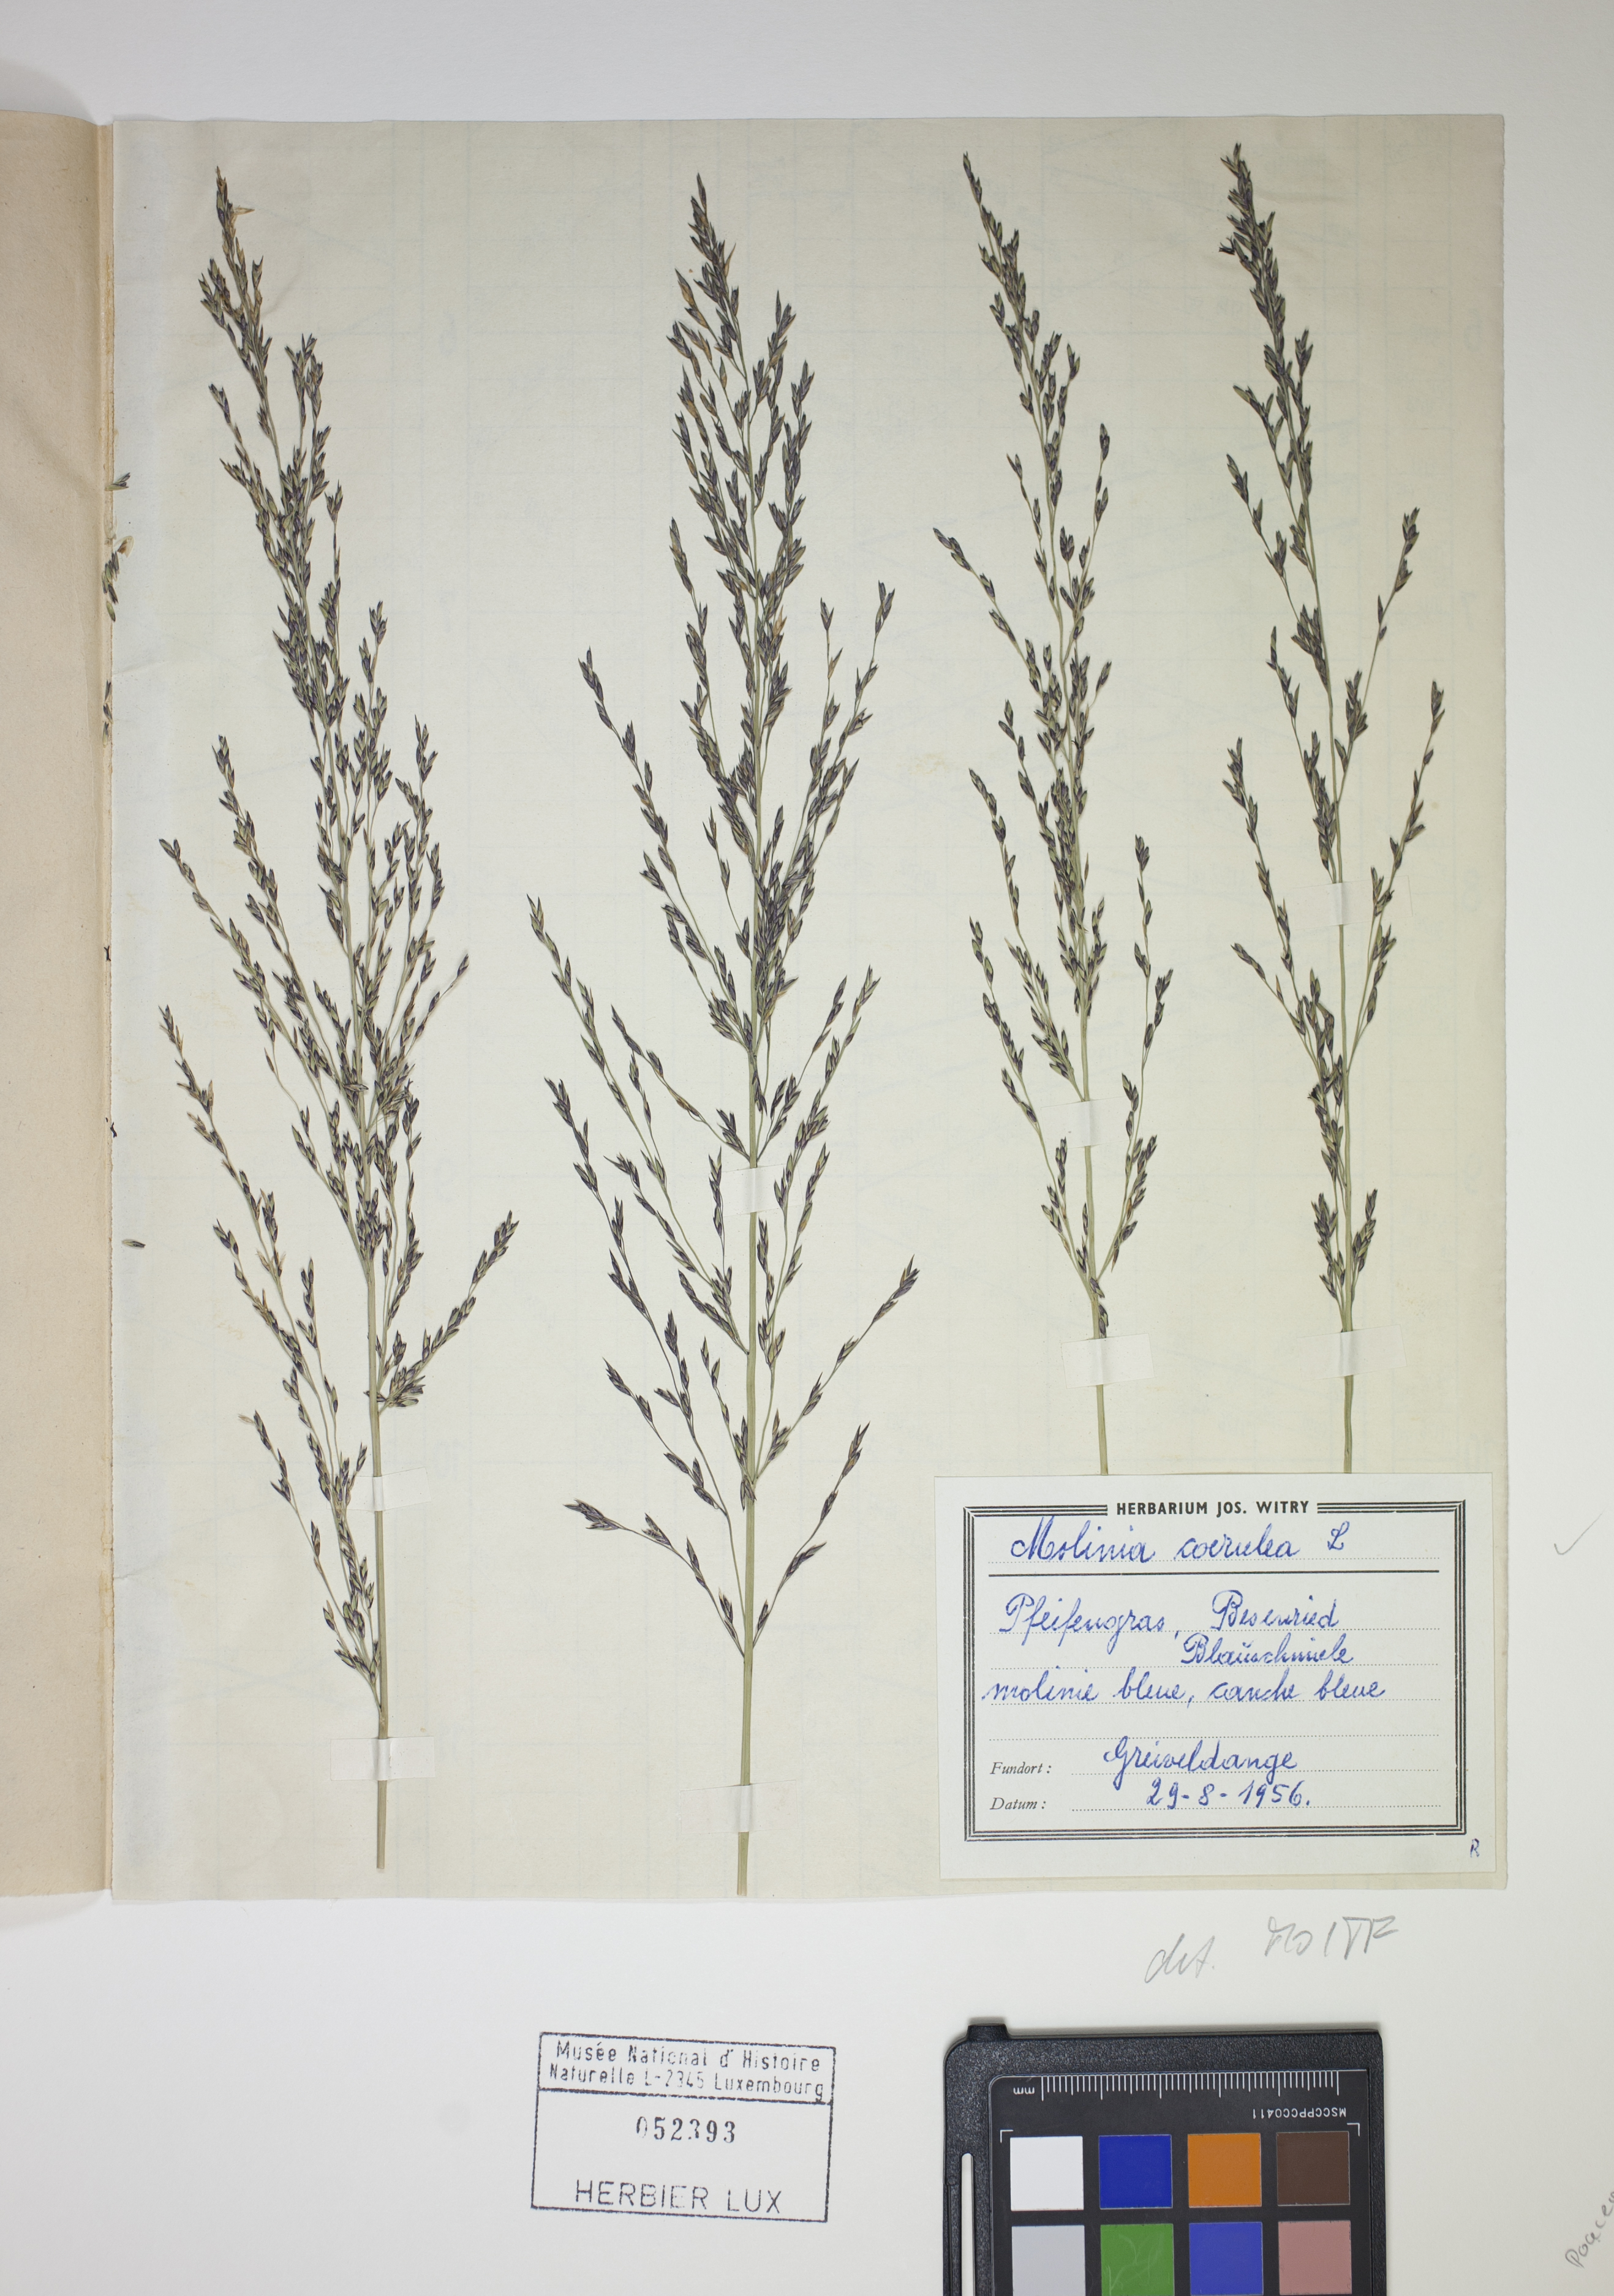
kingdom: Plantae
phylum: Tracheophyta
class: Liliopsida
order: Poales
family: Poaceae
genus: Molinia
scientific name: Molinia caerulea
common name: Purple moor-grass
